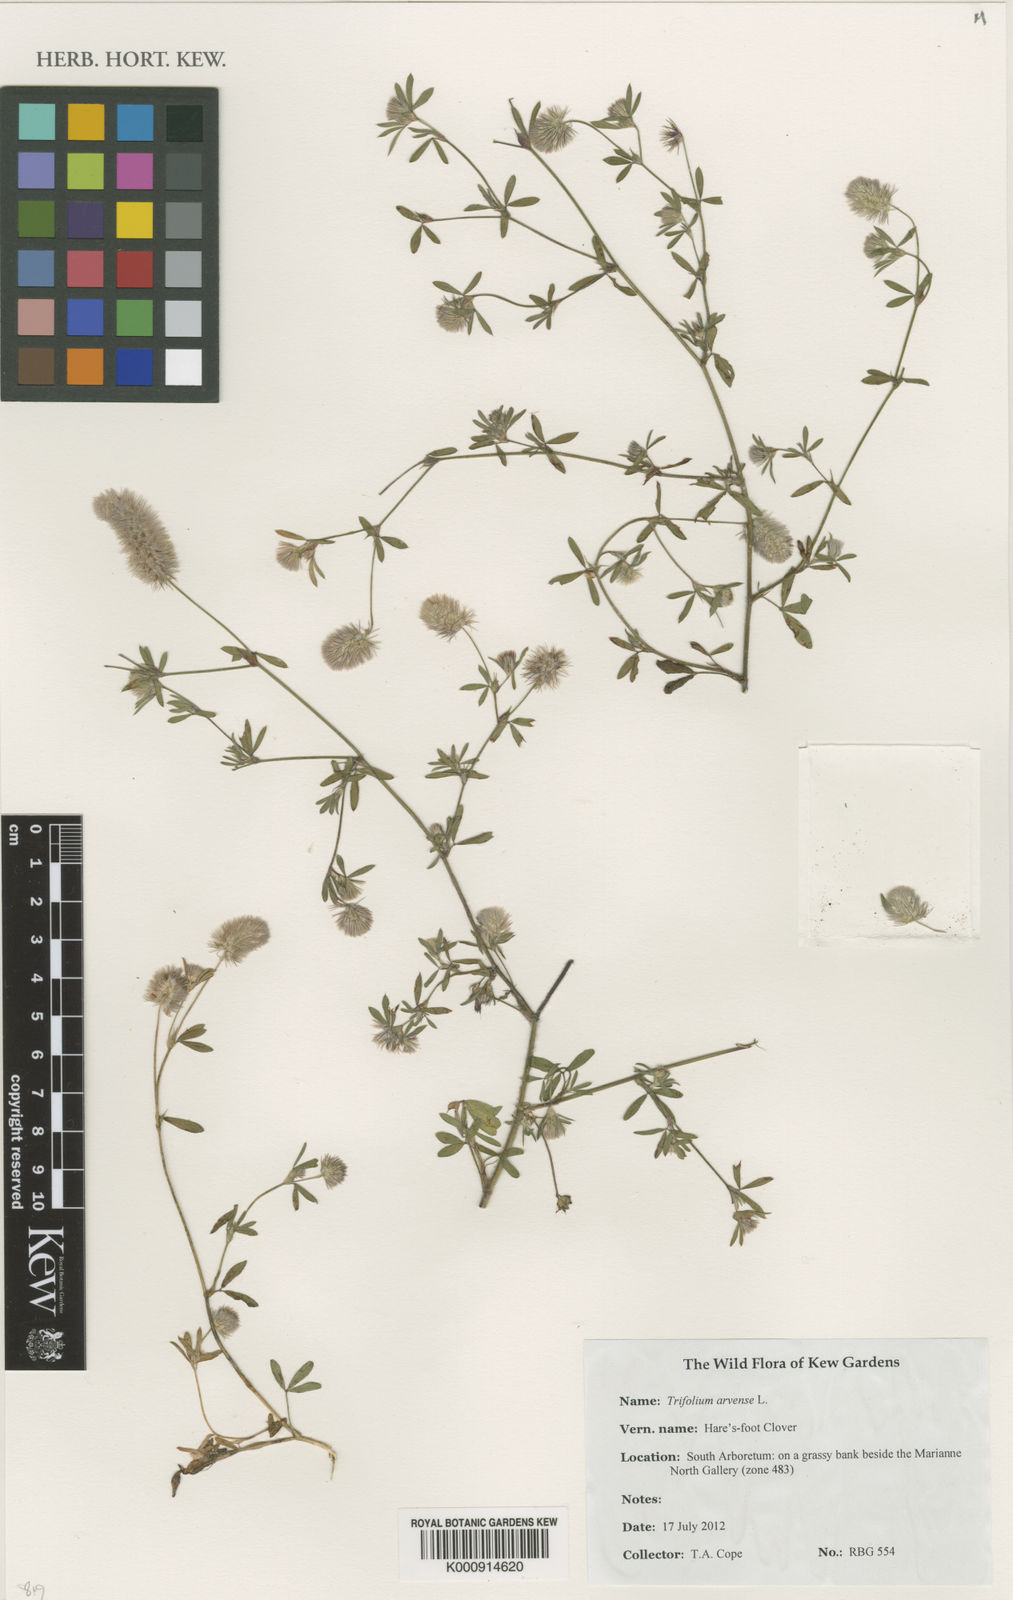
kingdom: Plantae
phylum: Tracheophyta
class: Magnoliopsida
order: Fabales
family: Fabaceae
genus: Trifolium
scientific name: Trifolium campestre
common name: Field clover
